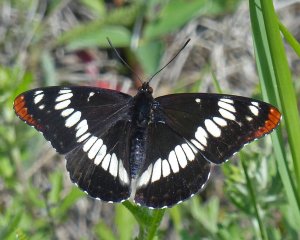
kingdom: Animalia
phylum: Arthropoda
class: Insecta
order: Lepidoptera
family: Nymphalidae
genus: Limenitis
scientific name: Limenitis lorquini
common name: Lorquin's Admiral
